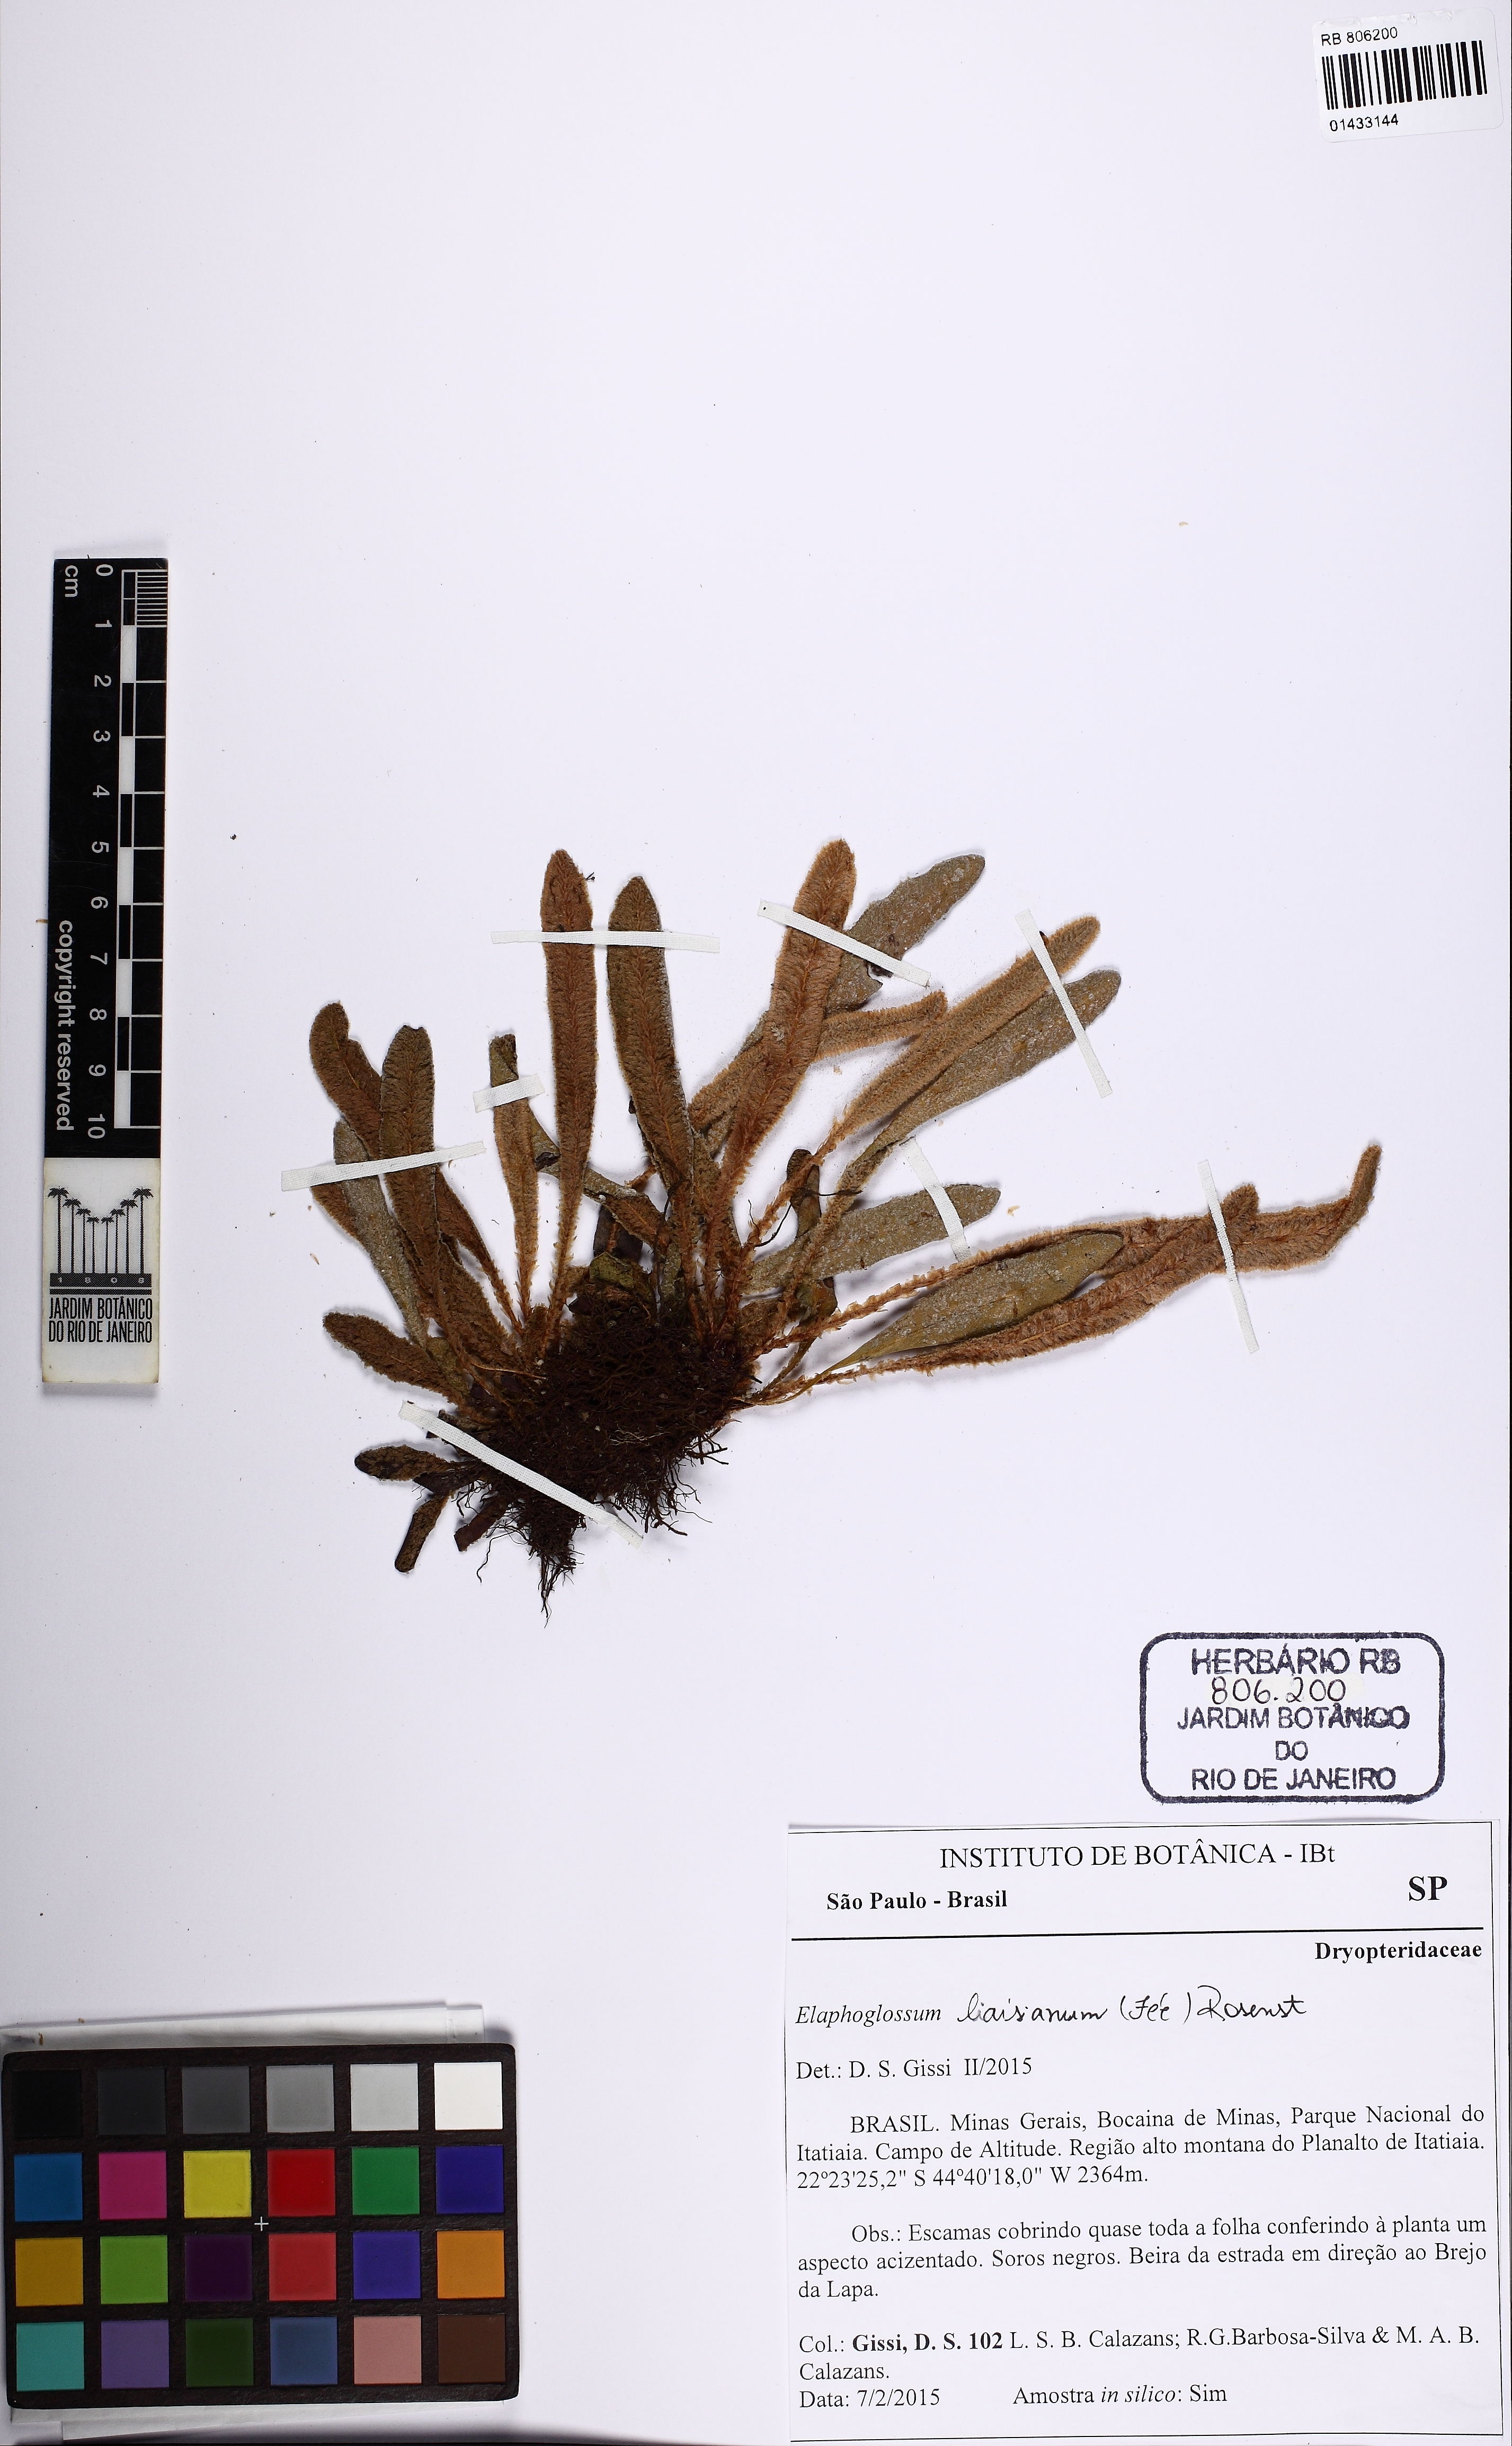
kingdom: Plantae
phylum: Tracheophyta
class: Polypodiopsida
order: Polypodiales
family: Dryopteridaceae
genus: Elaphoglossum
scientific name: Elaphoglossum liaisianum
